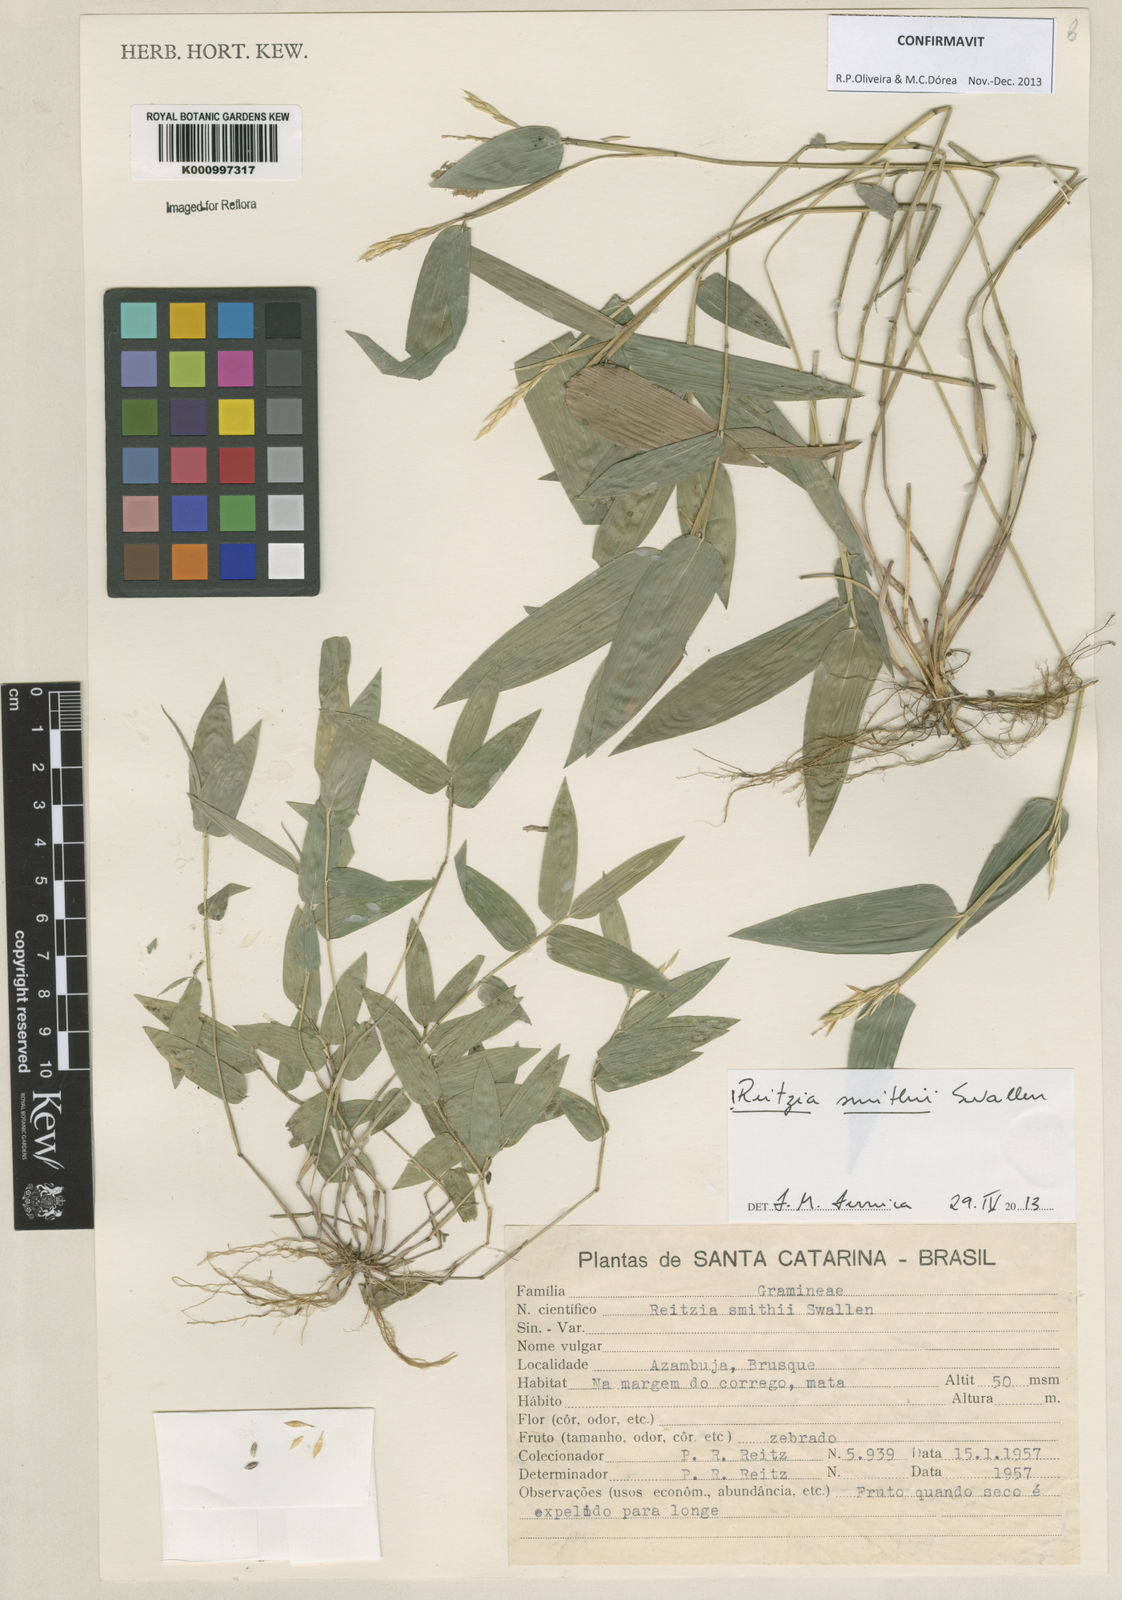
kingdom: Plantae
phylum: Tracheophyta
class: Liliopsida
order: Poales
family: Poaceae
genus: Reitzia
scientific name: Reitzia smithii
